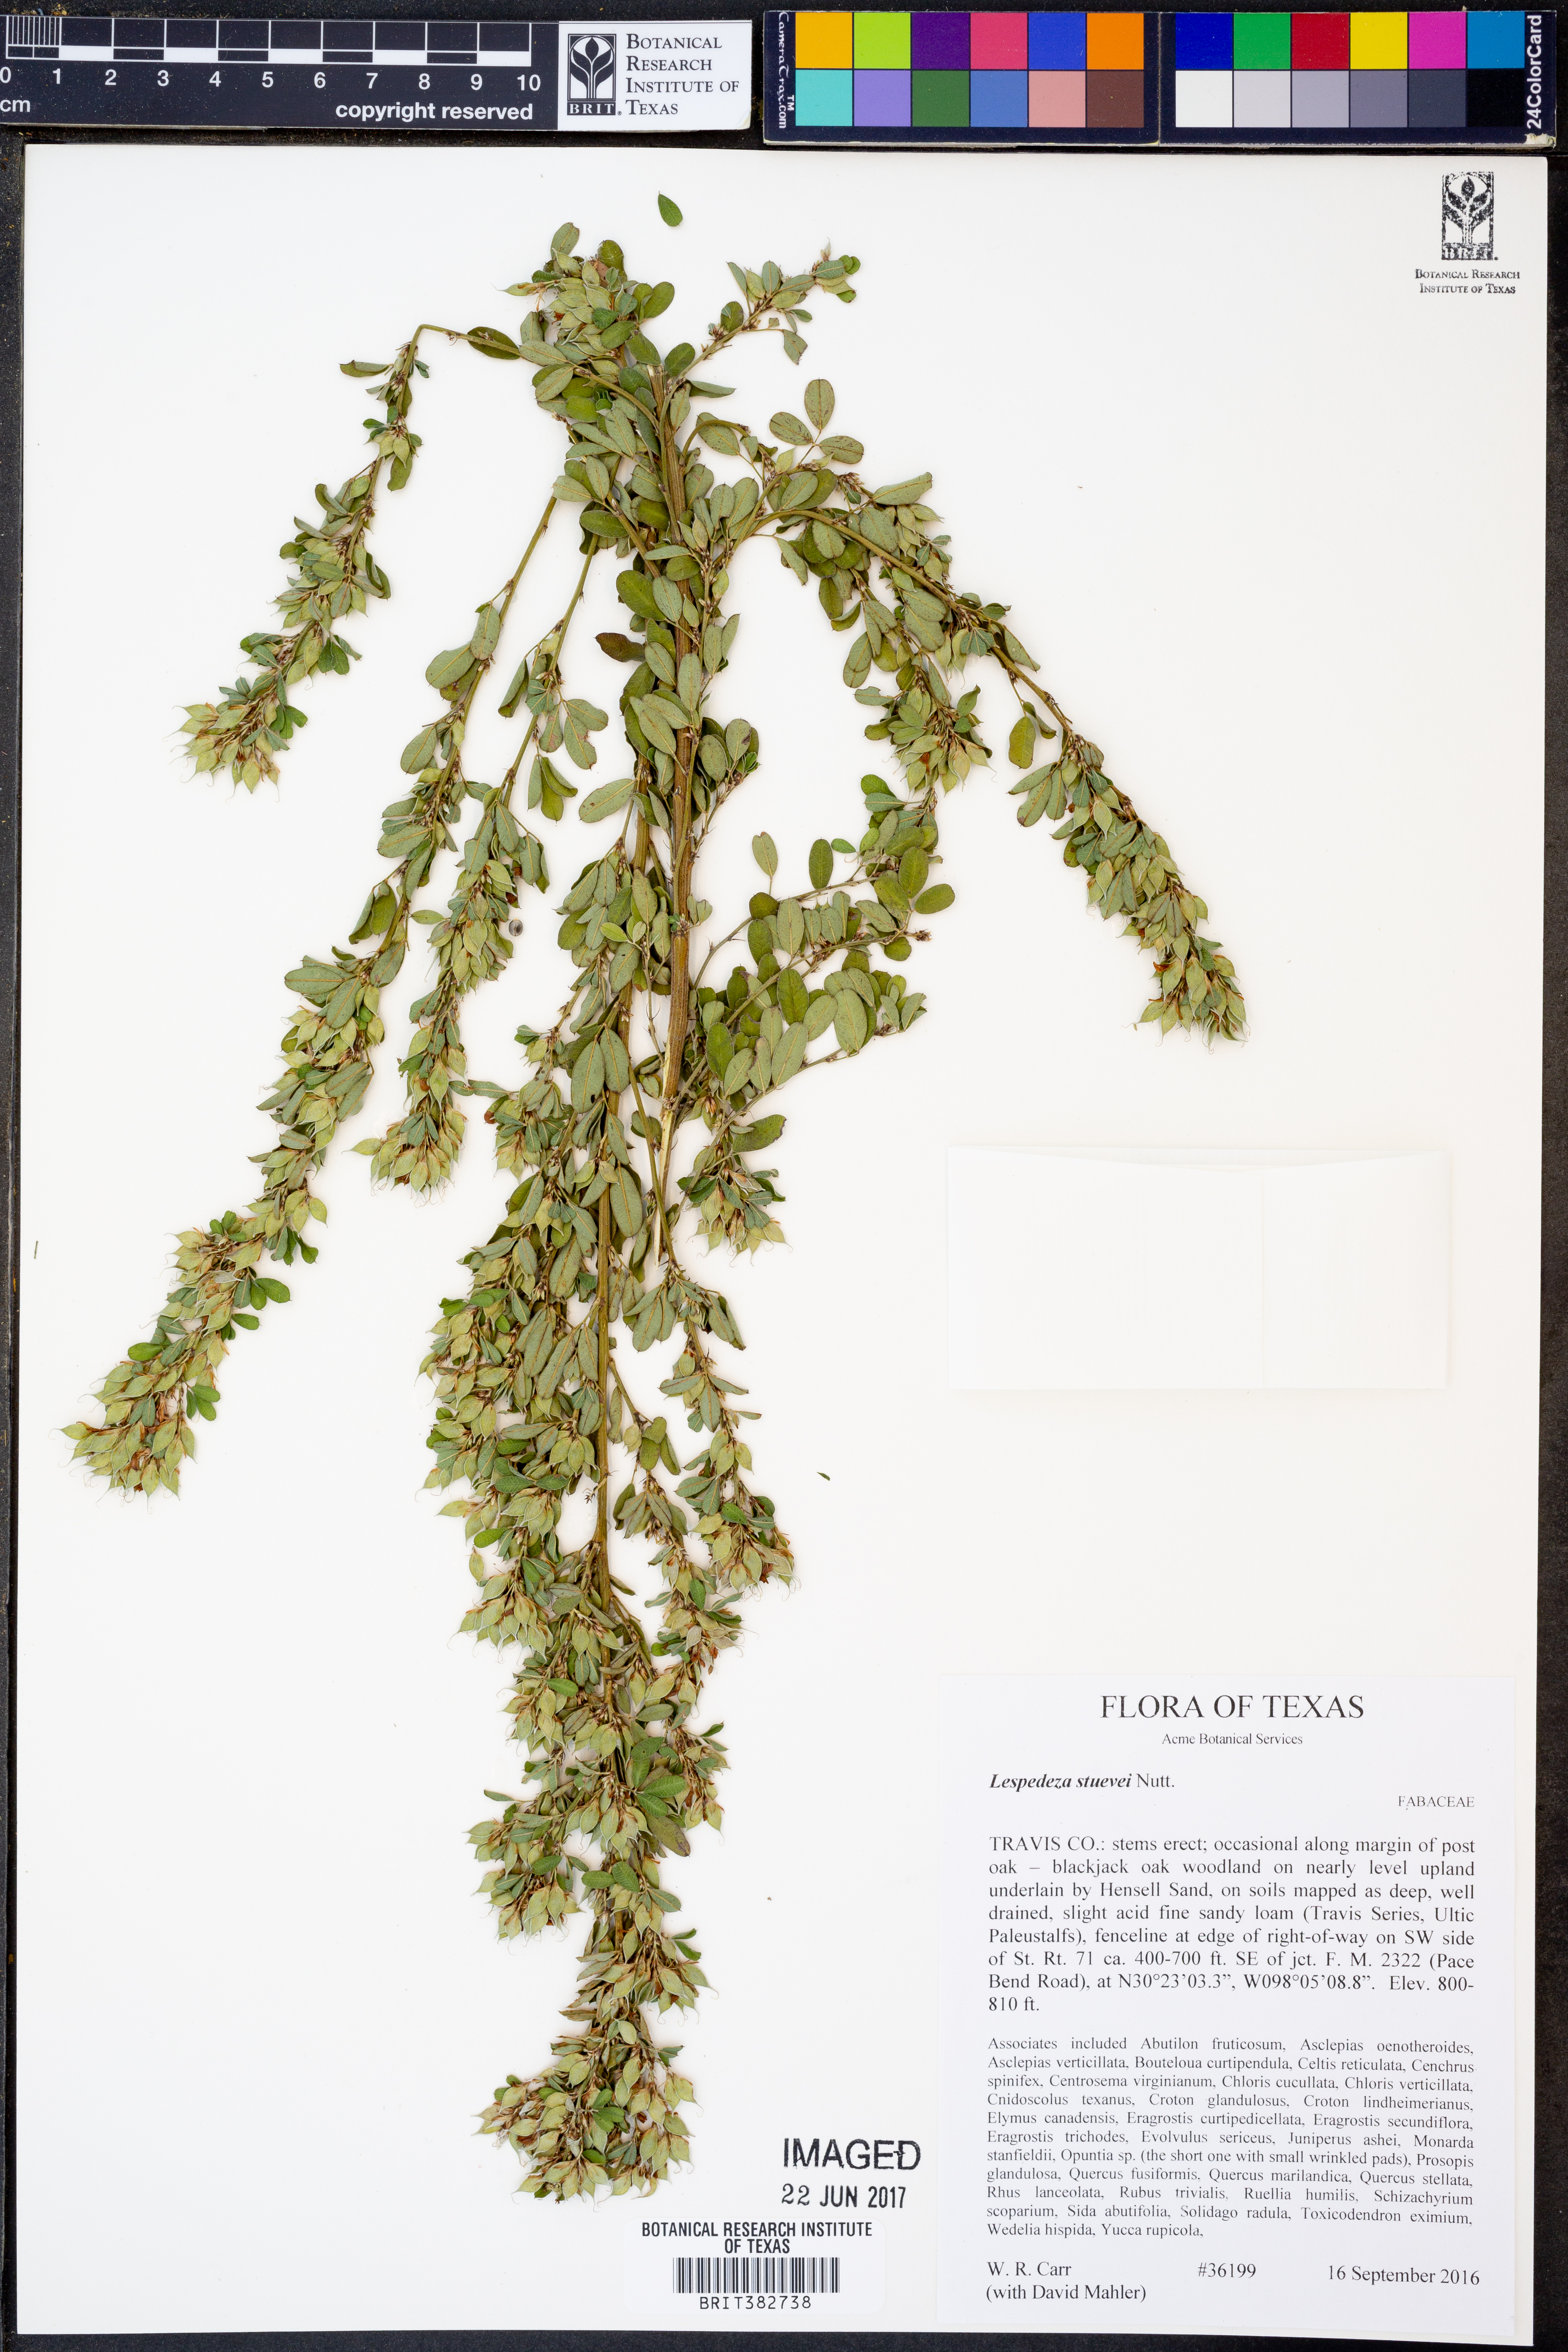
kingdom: Plantae
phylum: Tracheophyta
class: Magnoliopsida
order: Fabales
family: Fabaceae
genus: Lespedeza
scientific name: Lespedeza stuevei
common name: Tall bush-clover
